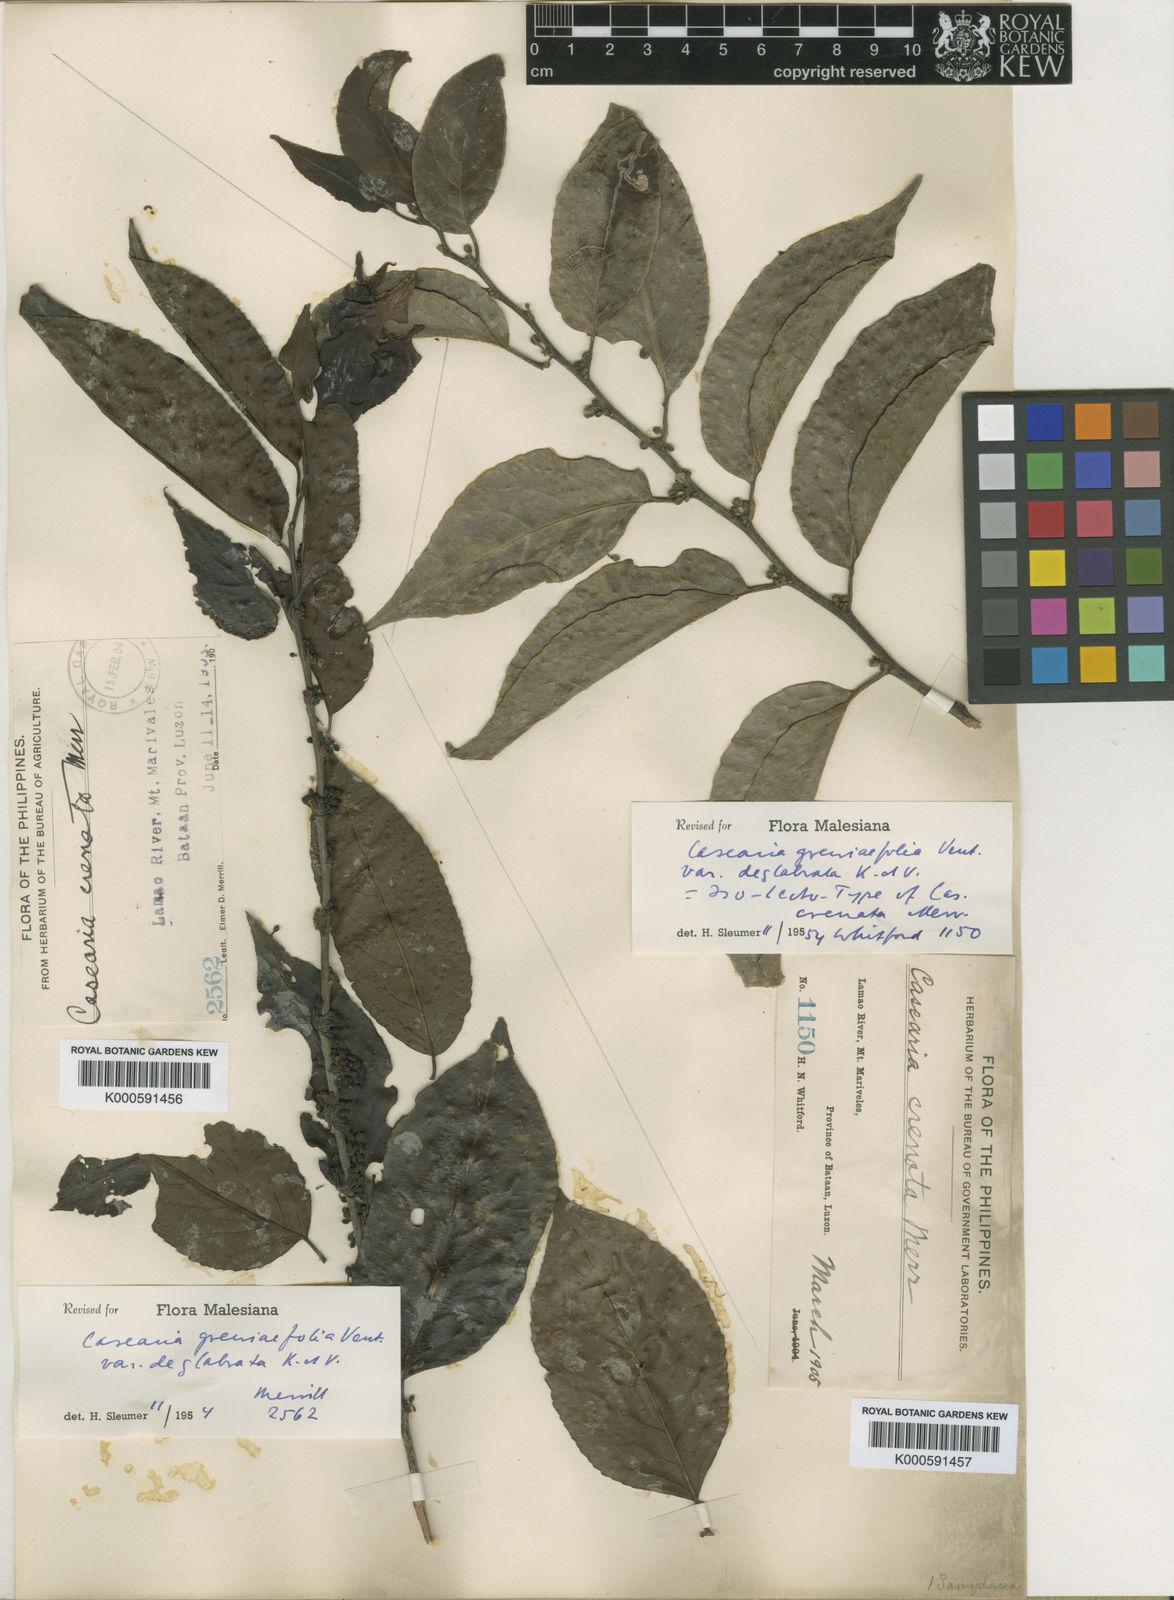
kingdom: Plantae
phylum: Tracheophyta
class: Magnoliopsida
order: Malpighiales
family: Salicaceae
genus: Casearia
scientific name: Casearia grewiifolia
